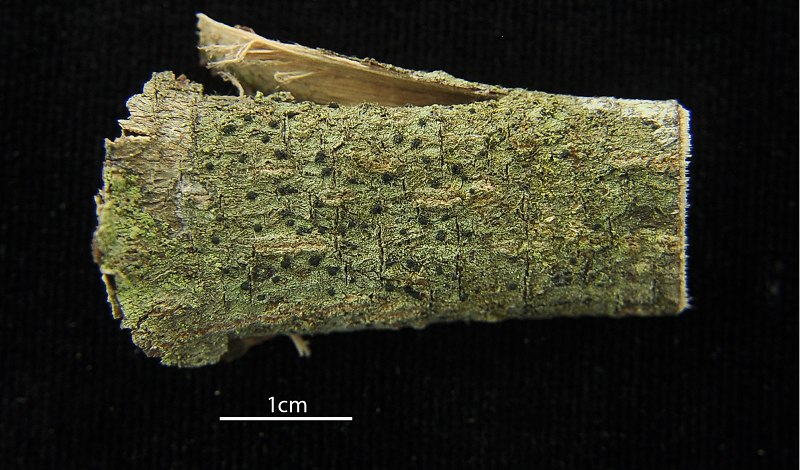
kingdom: Fungi
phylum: Ascomycota
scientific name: Ascomycota
